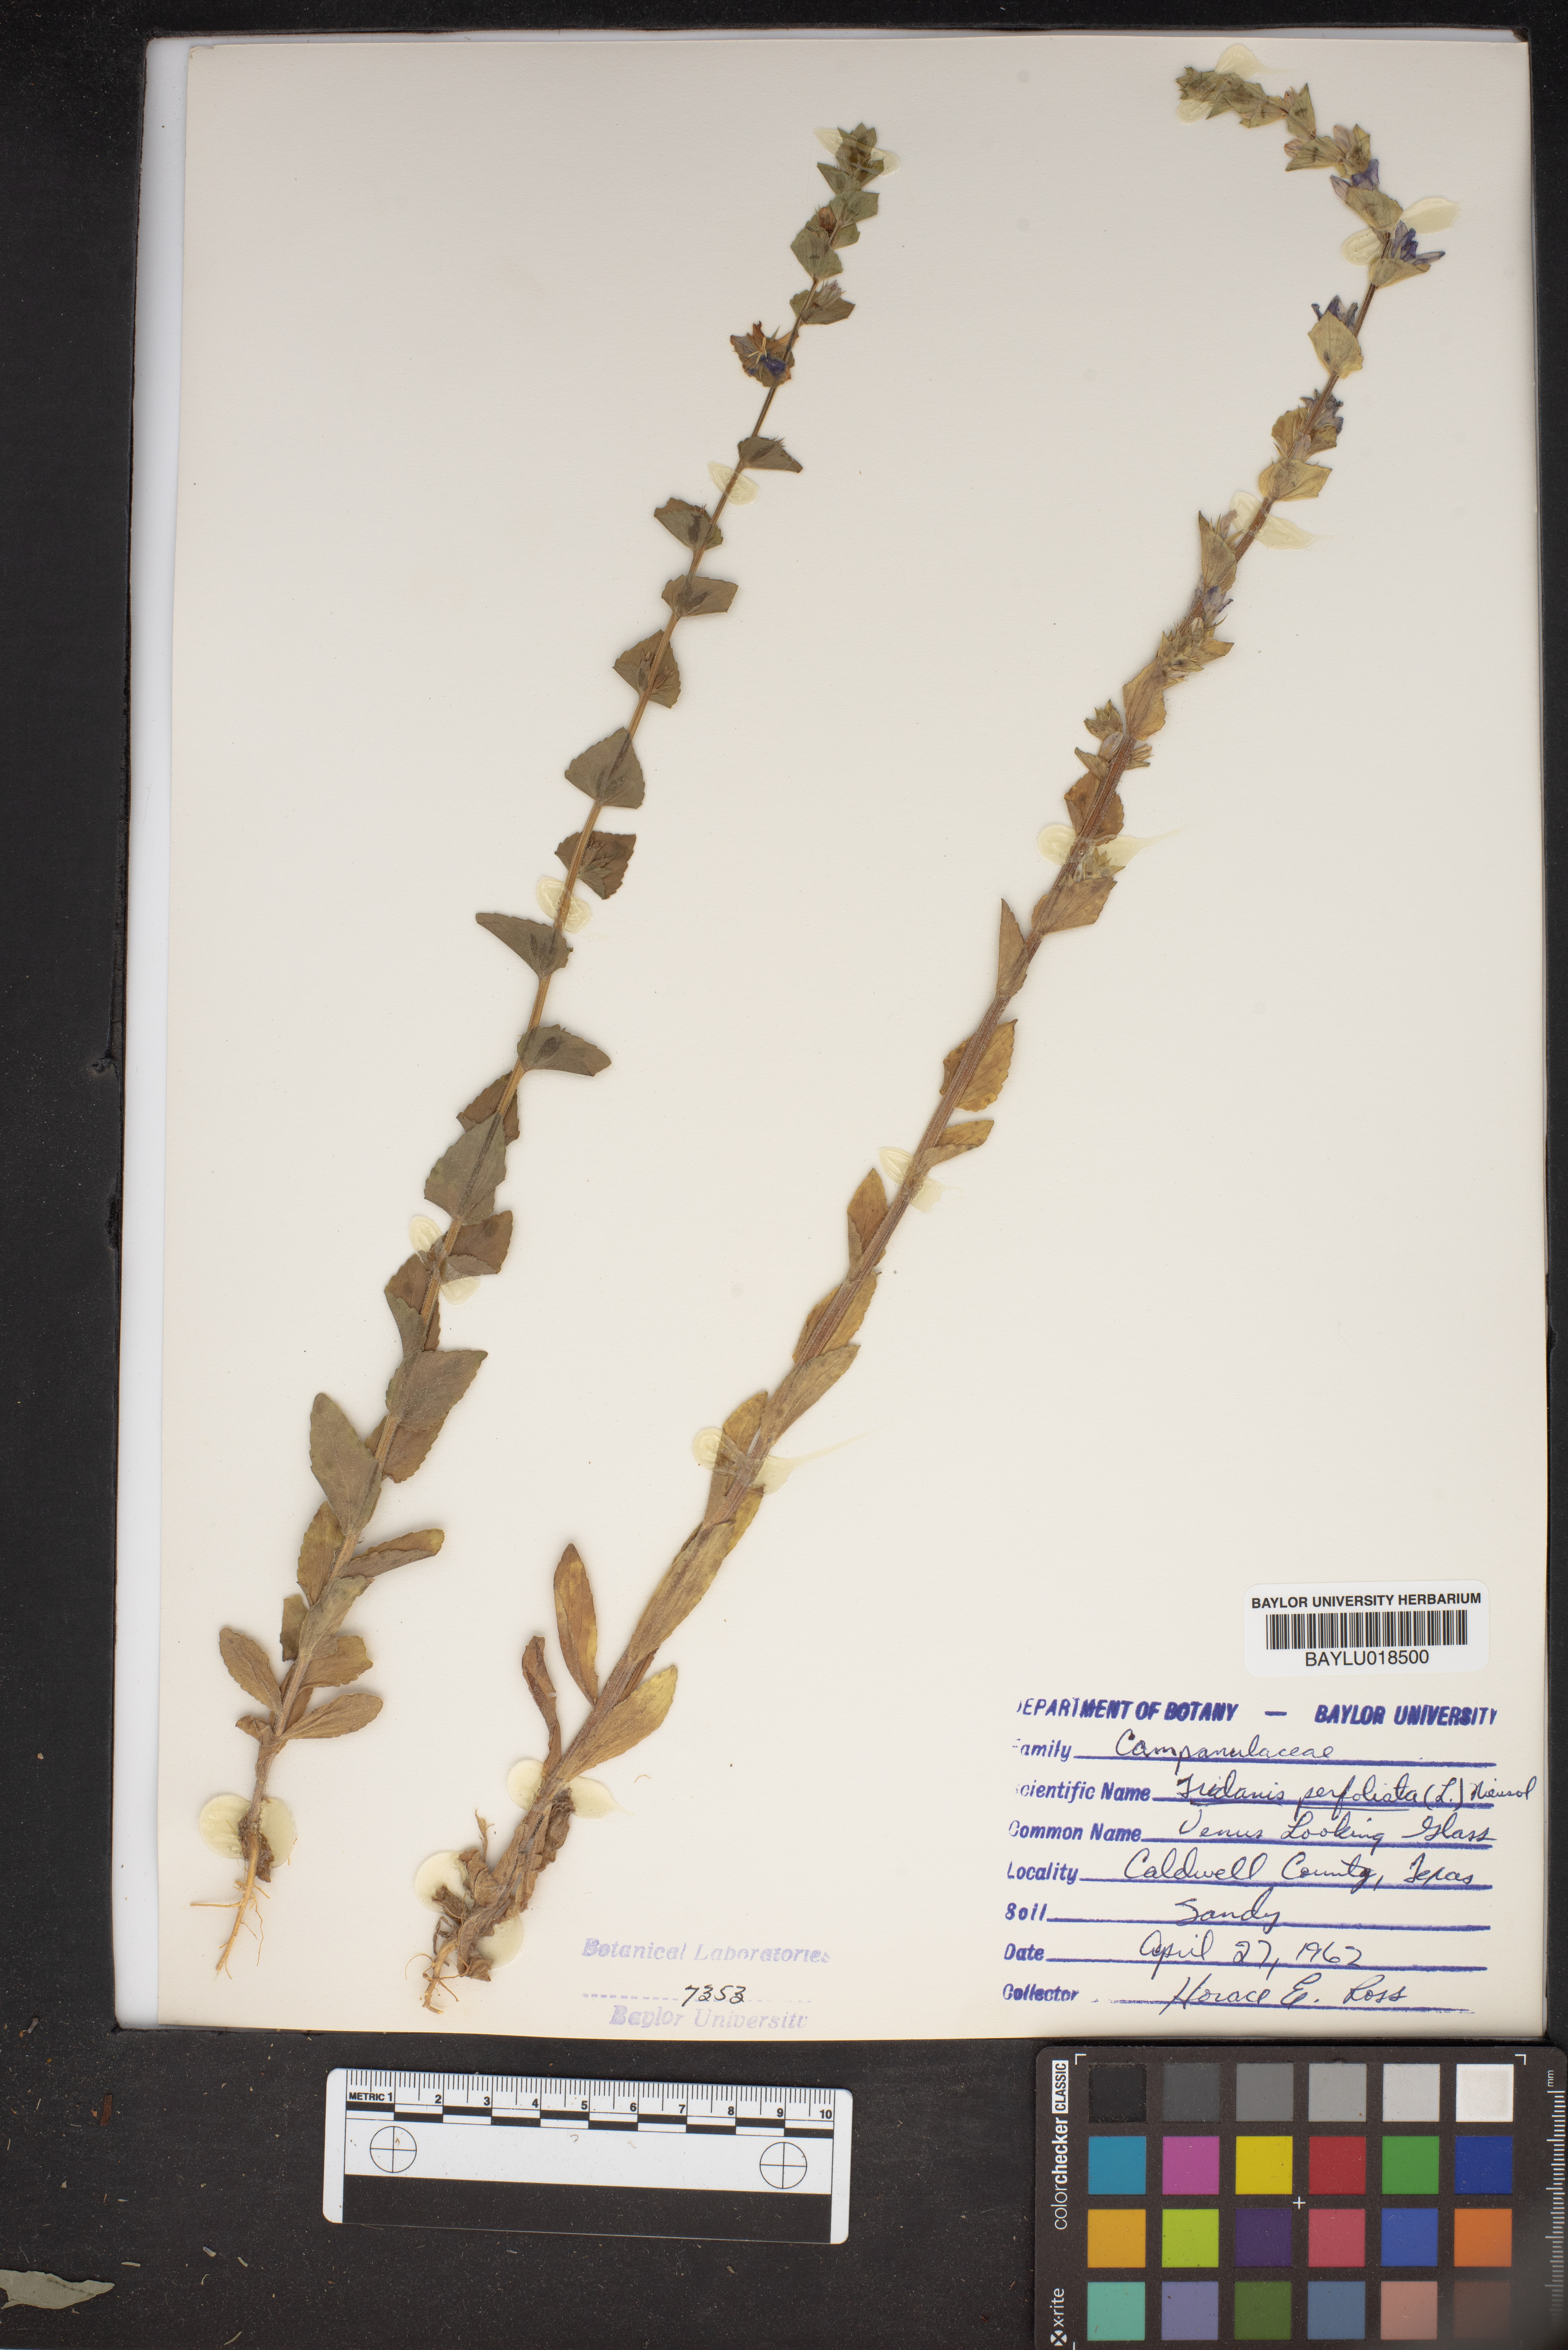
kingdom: Plantae
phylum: Tracheophyta
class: Magnoliopsida
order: Asterales
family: Campanulaceae
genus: Triodanis
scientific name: Triodanis perfoliata
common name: Clasping venus' looking-glass
